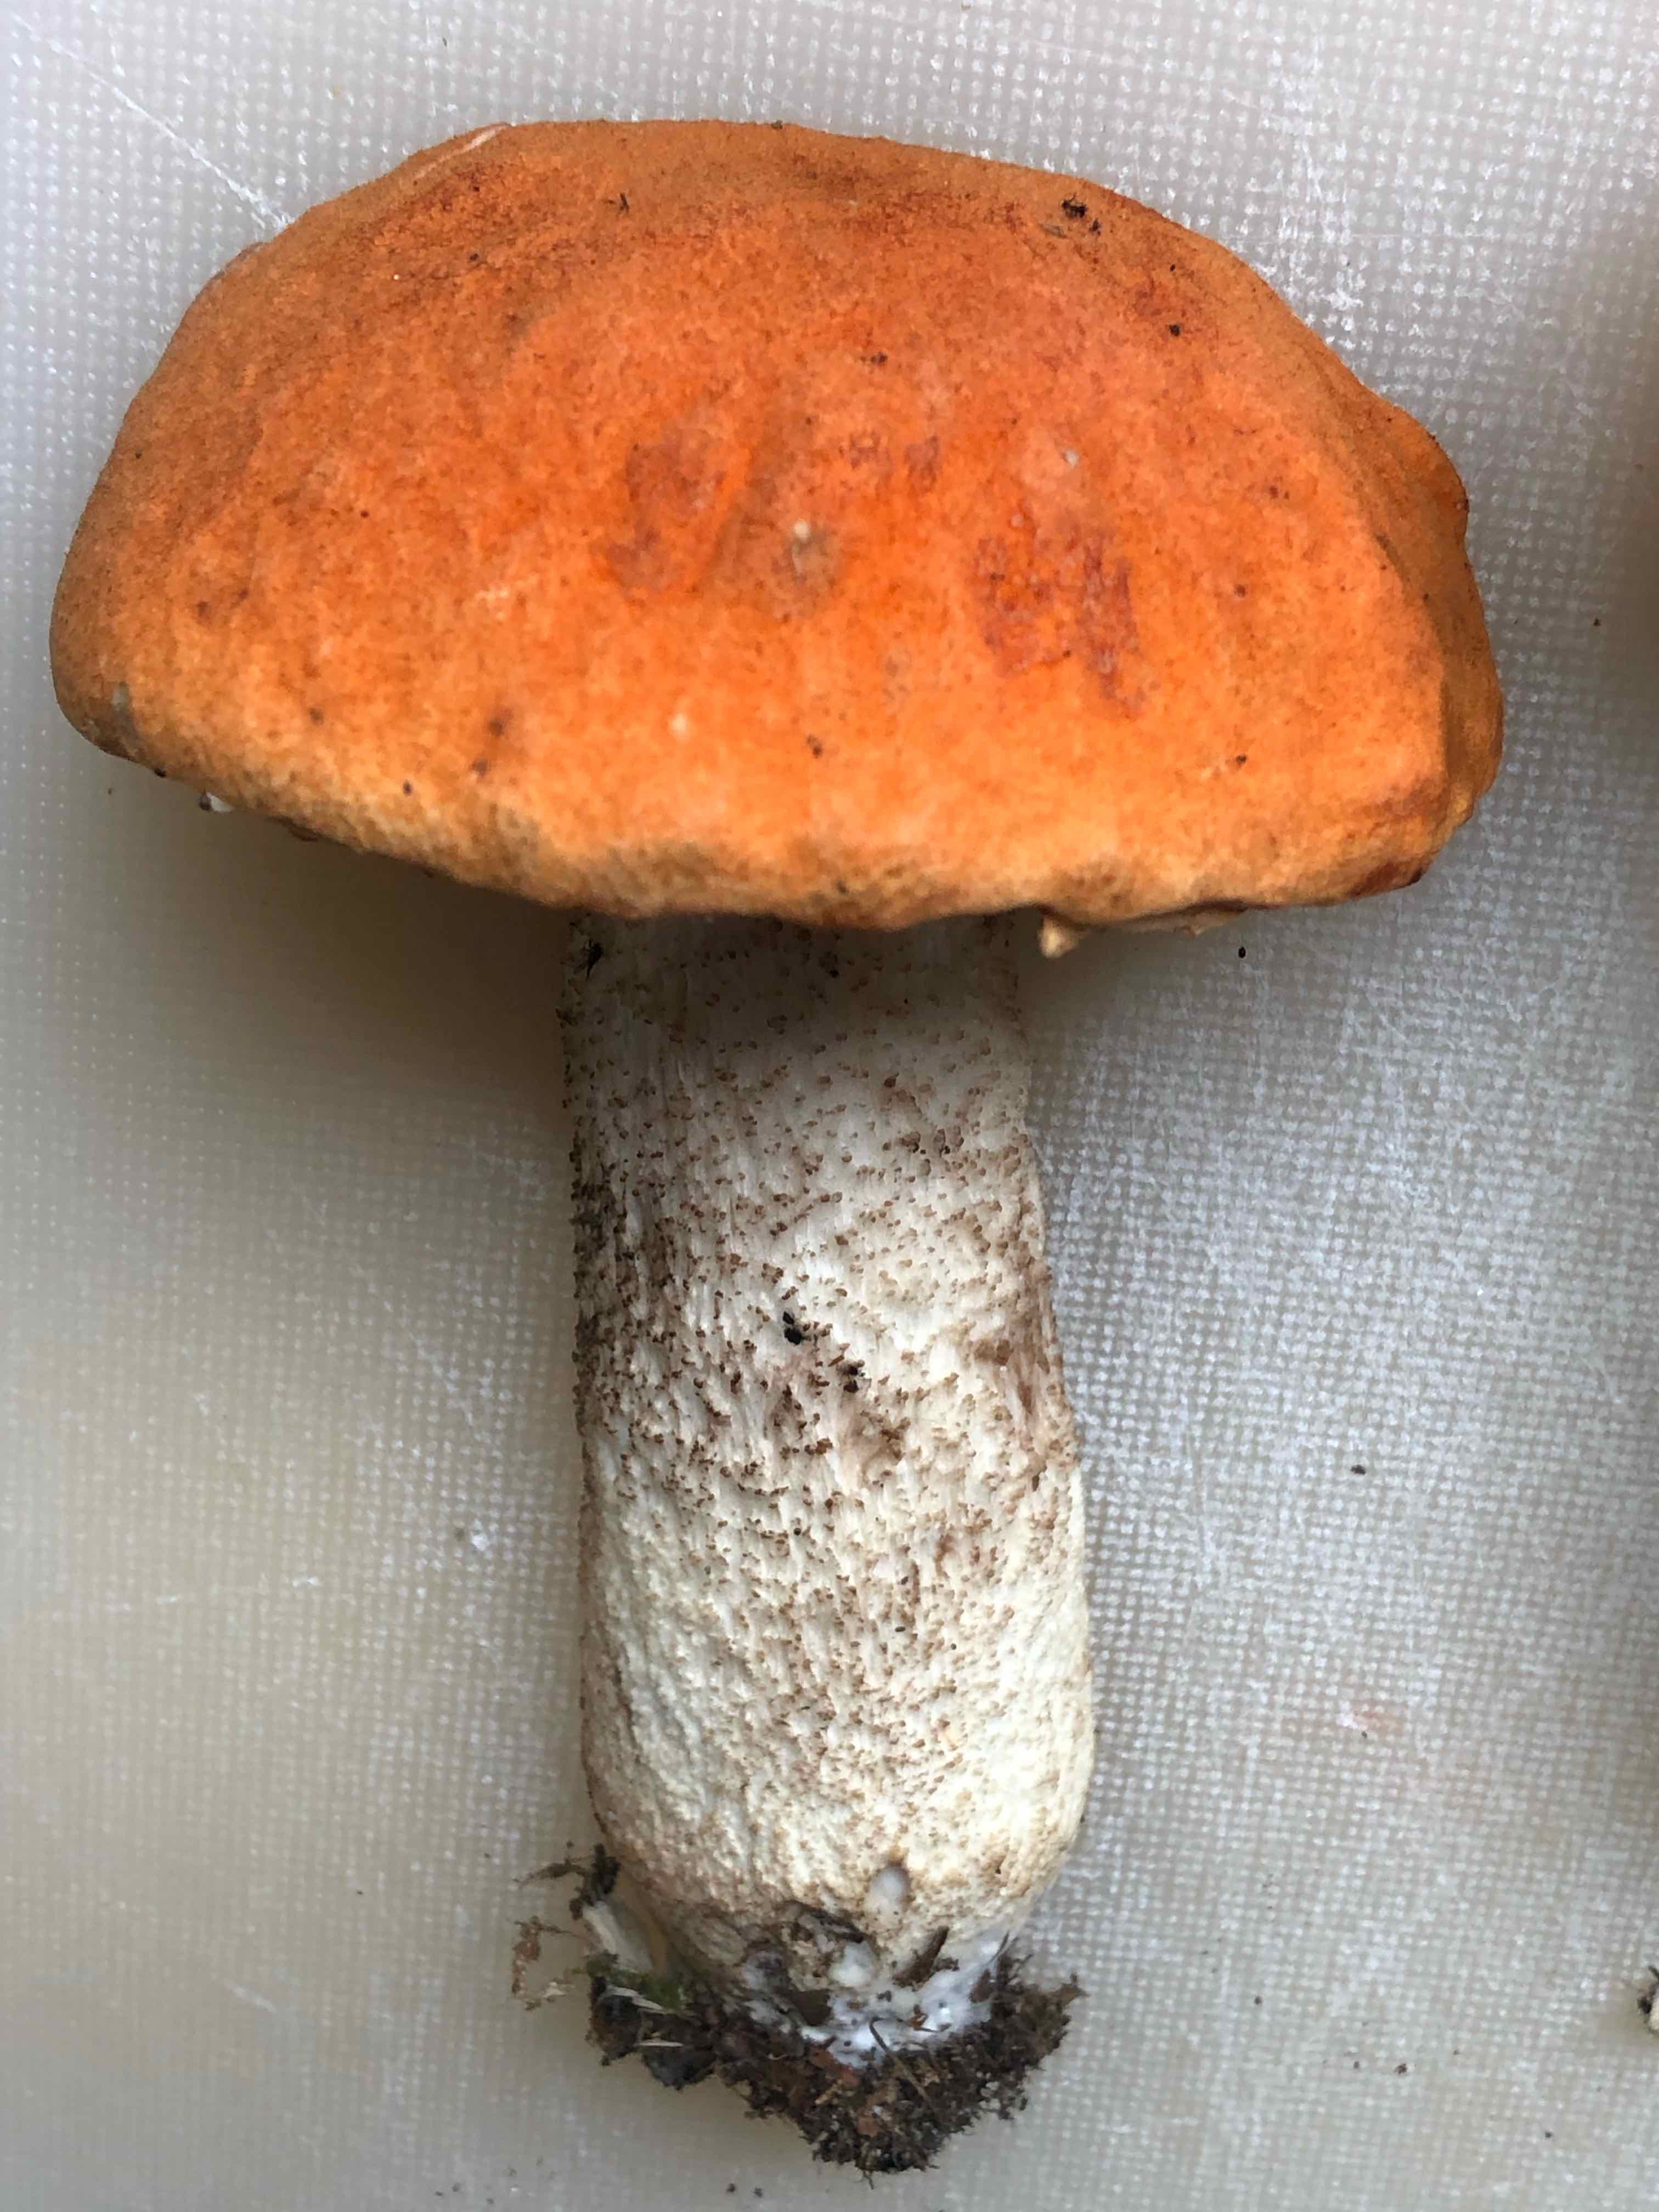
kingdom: Fungi
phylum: Basidiomycota
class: Agaricomycetes
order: Boletales
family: Boletaceae
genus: Leccinum
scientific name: Leccinum albostipitatum
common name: aspe-skælrørhat
